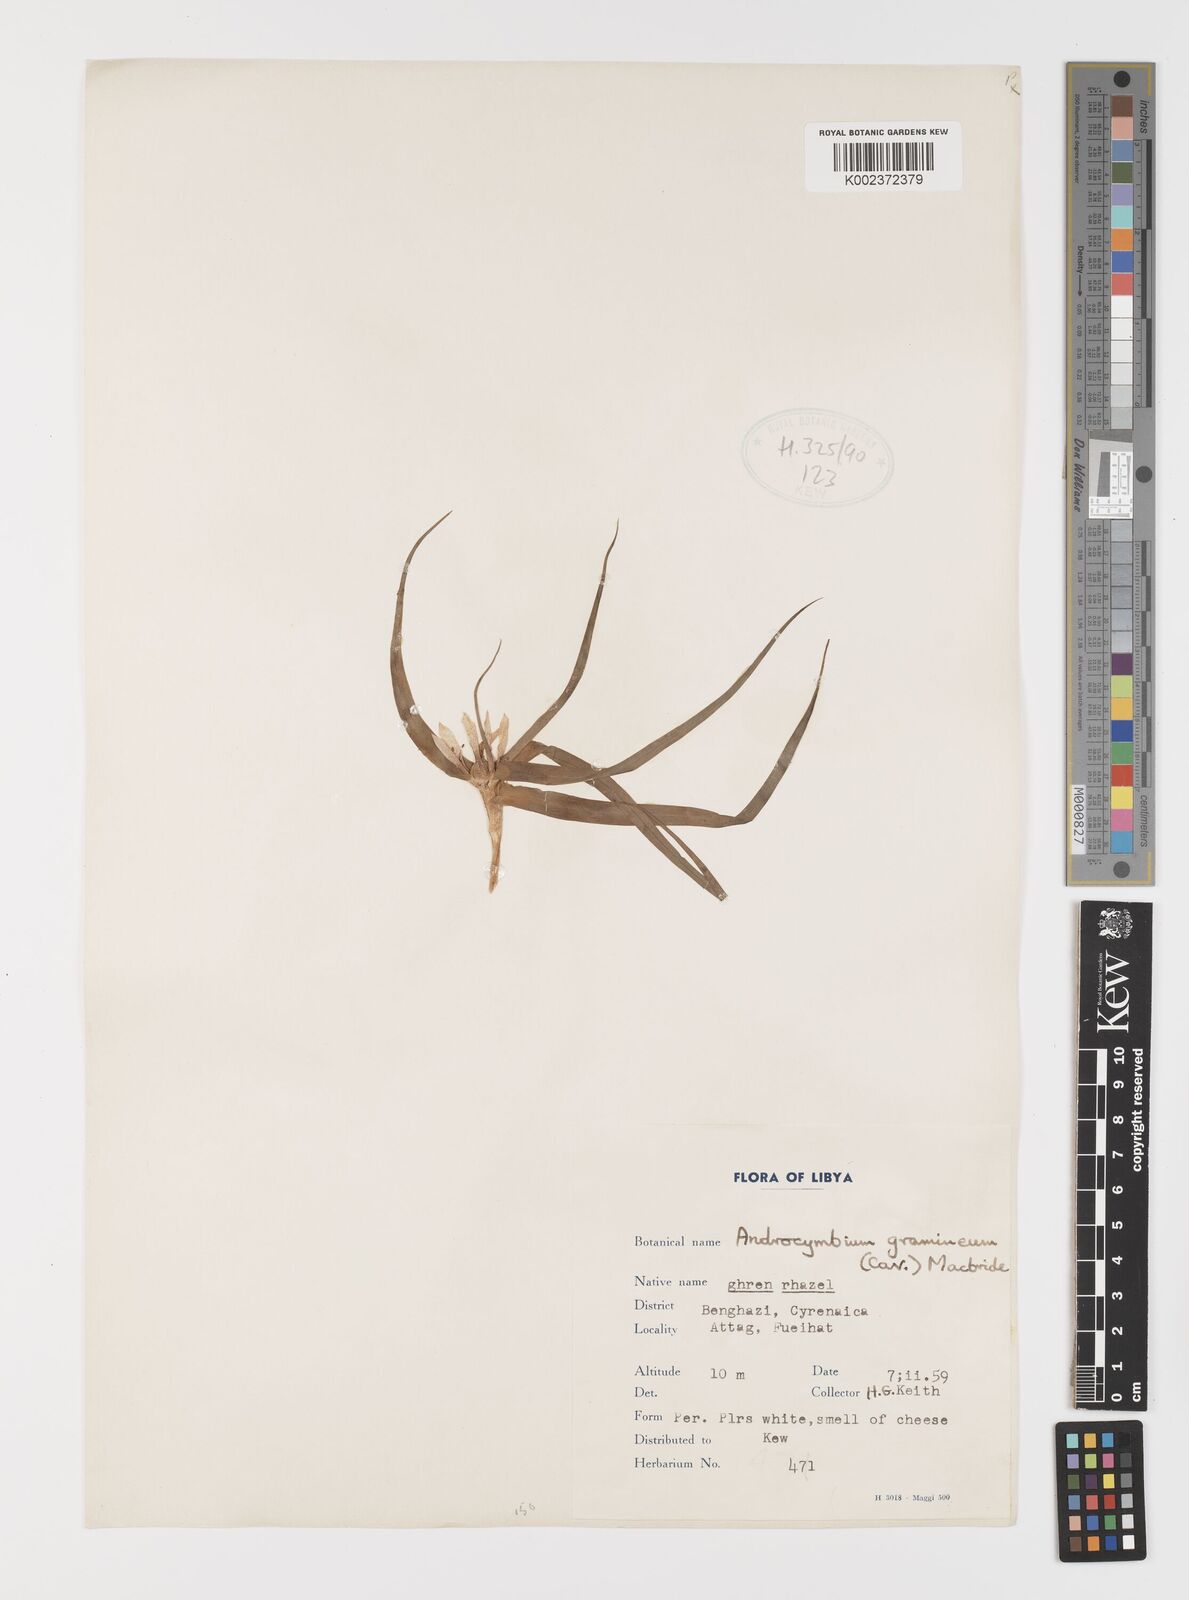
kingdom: Plantae
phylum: Tracheophyta
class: Liliopsida
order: Liliales
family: Colchicaceae
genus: Colchicum
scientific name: Colchicum gramineum
